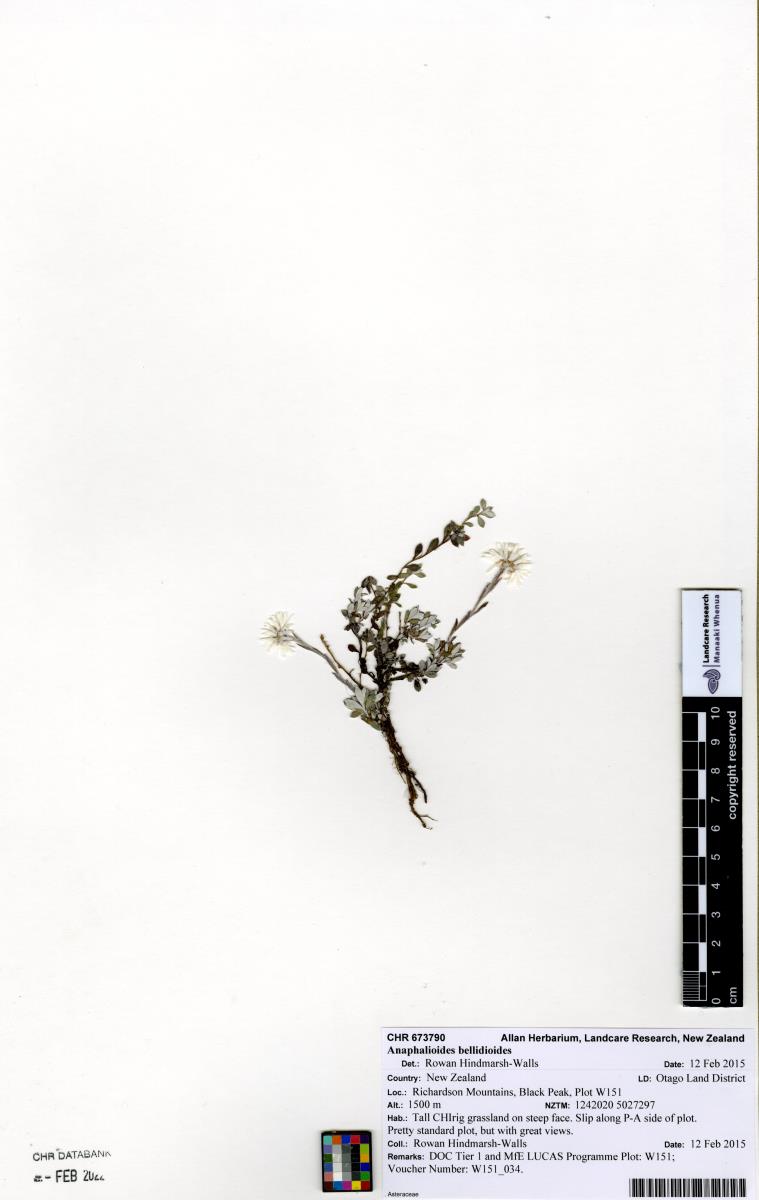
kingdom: Plantae
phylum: Tracheophyta
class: Magnoliopsida
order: Asterales
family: Asteraceae
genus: Anaphalioides
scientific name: Anaphalioides bellidioides
